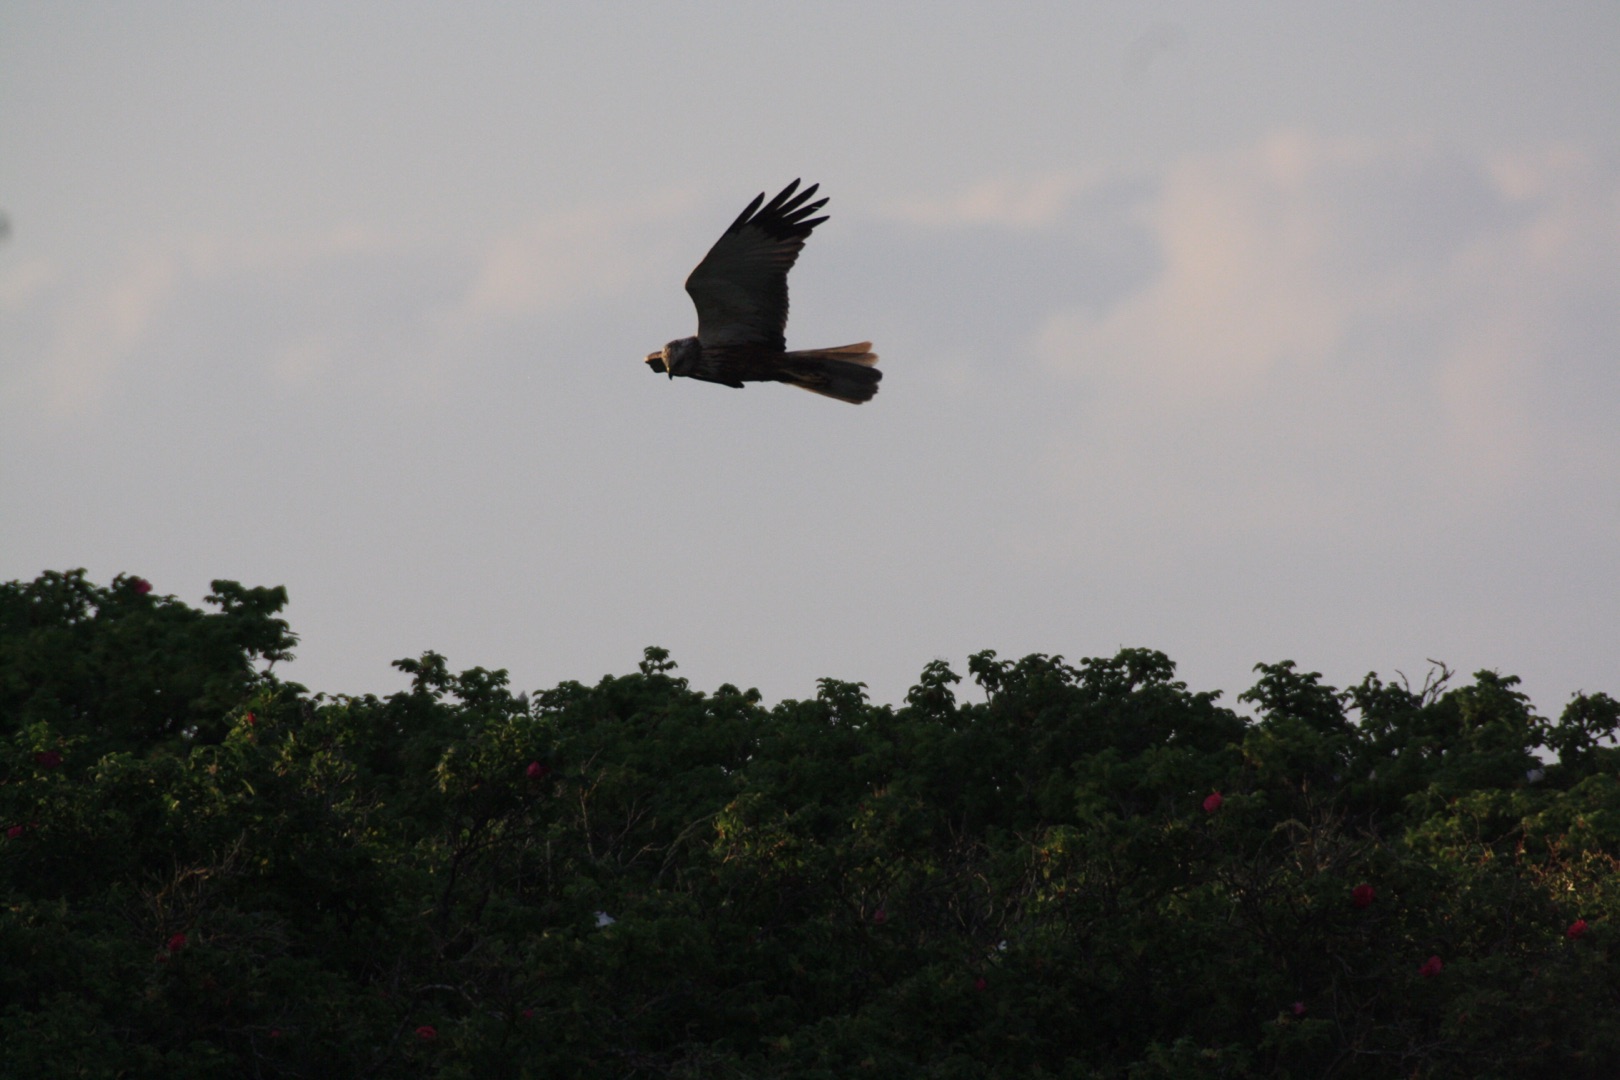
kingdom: Animalia
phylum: Chordata
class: Aves
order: Accipitriformes
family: Accipitridae
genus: Circus
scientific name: Circus aeruginosus
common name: Rørhøg
